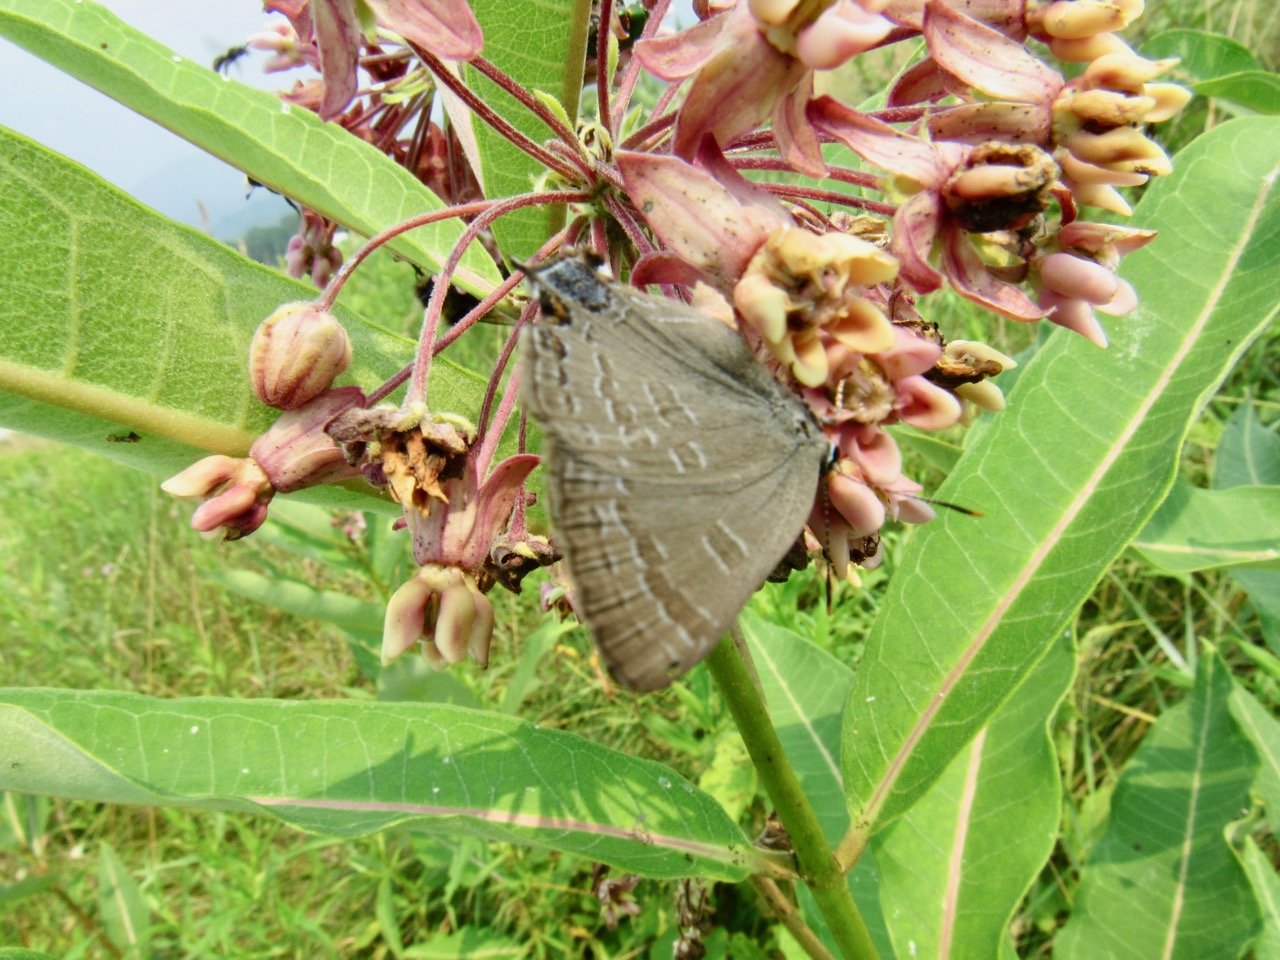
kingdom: Animalia
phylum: Arthropoda
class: Insecta
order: Lepidoptera
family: Lycaenidae
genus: Strymon
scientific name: Strymon caryaevorus
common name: Hickory Hairstreak
